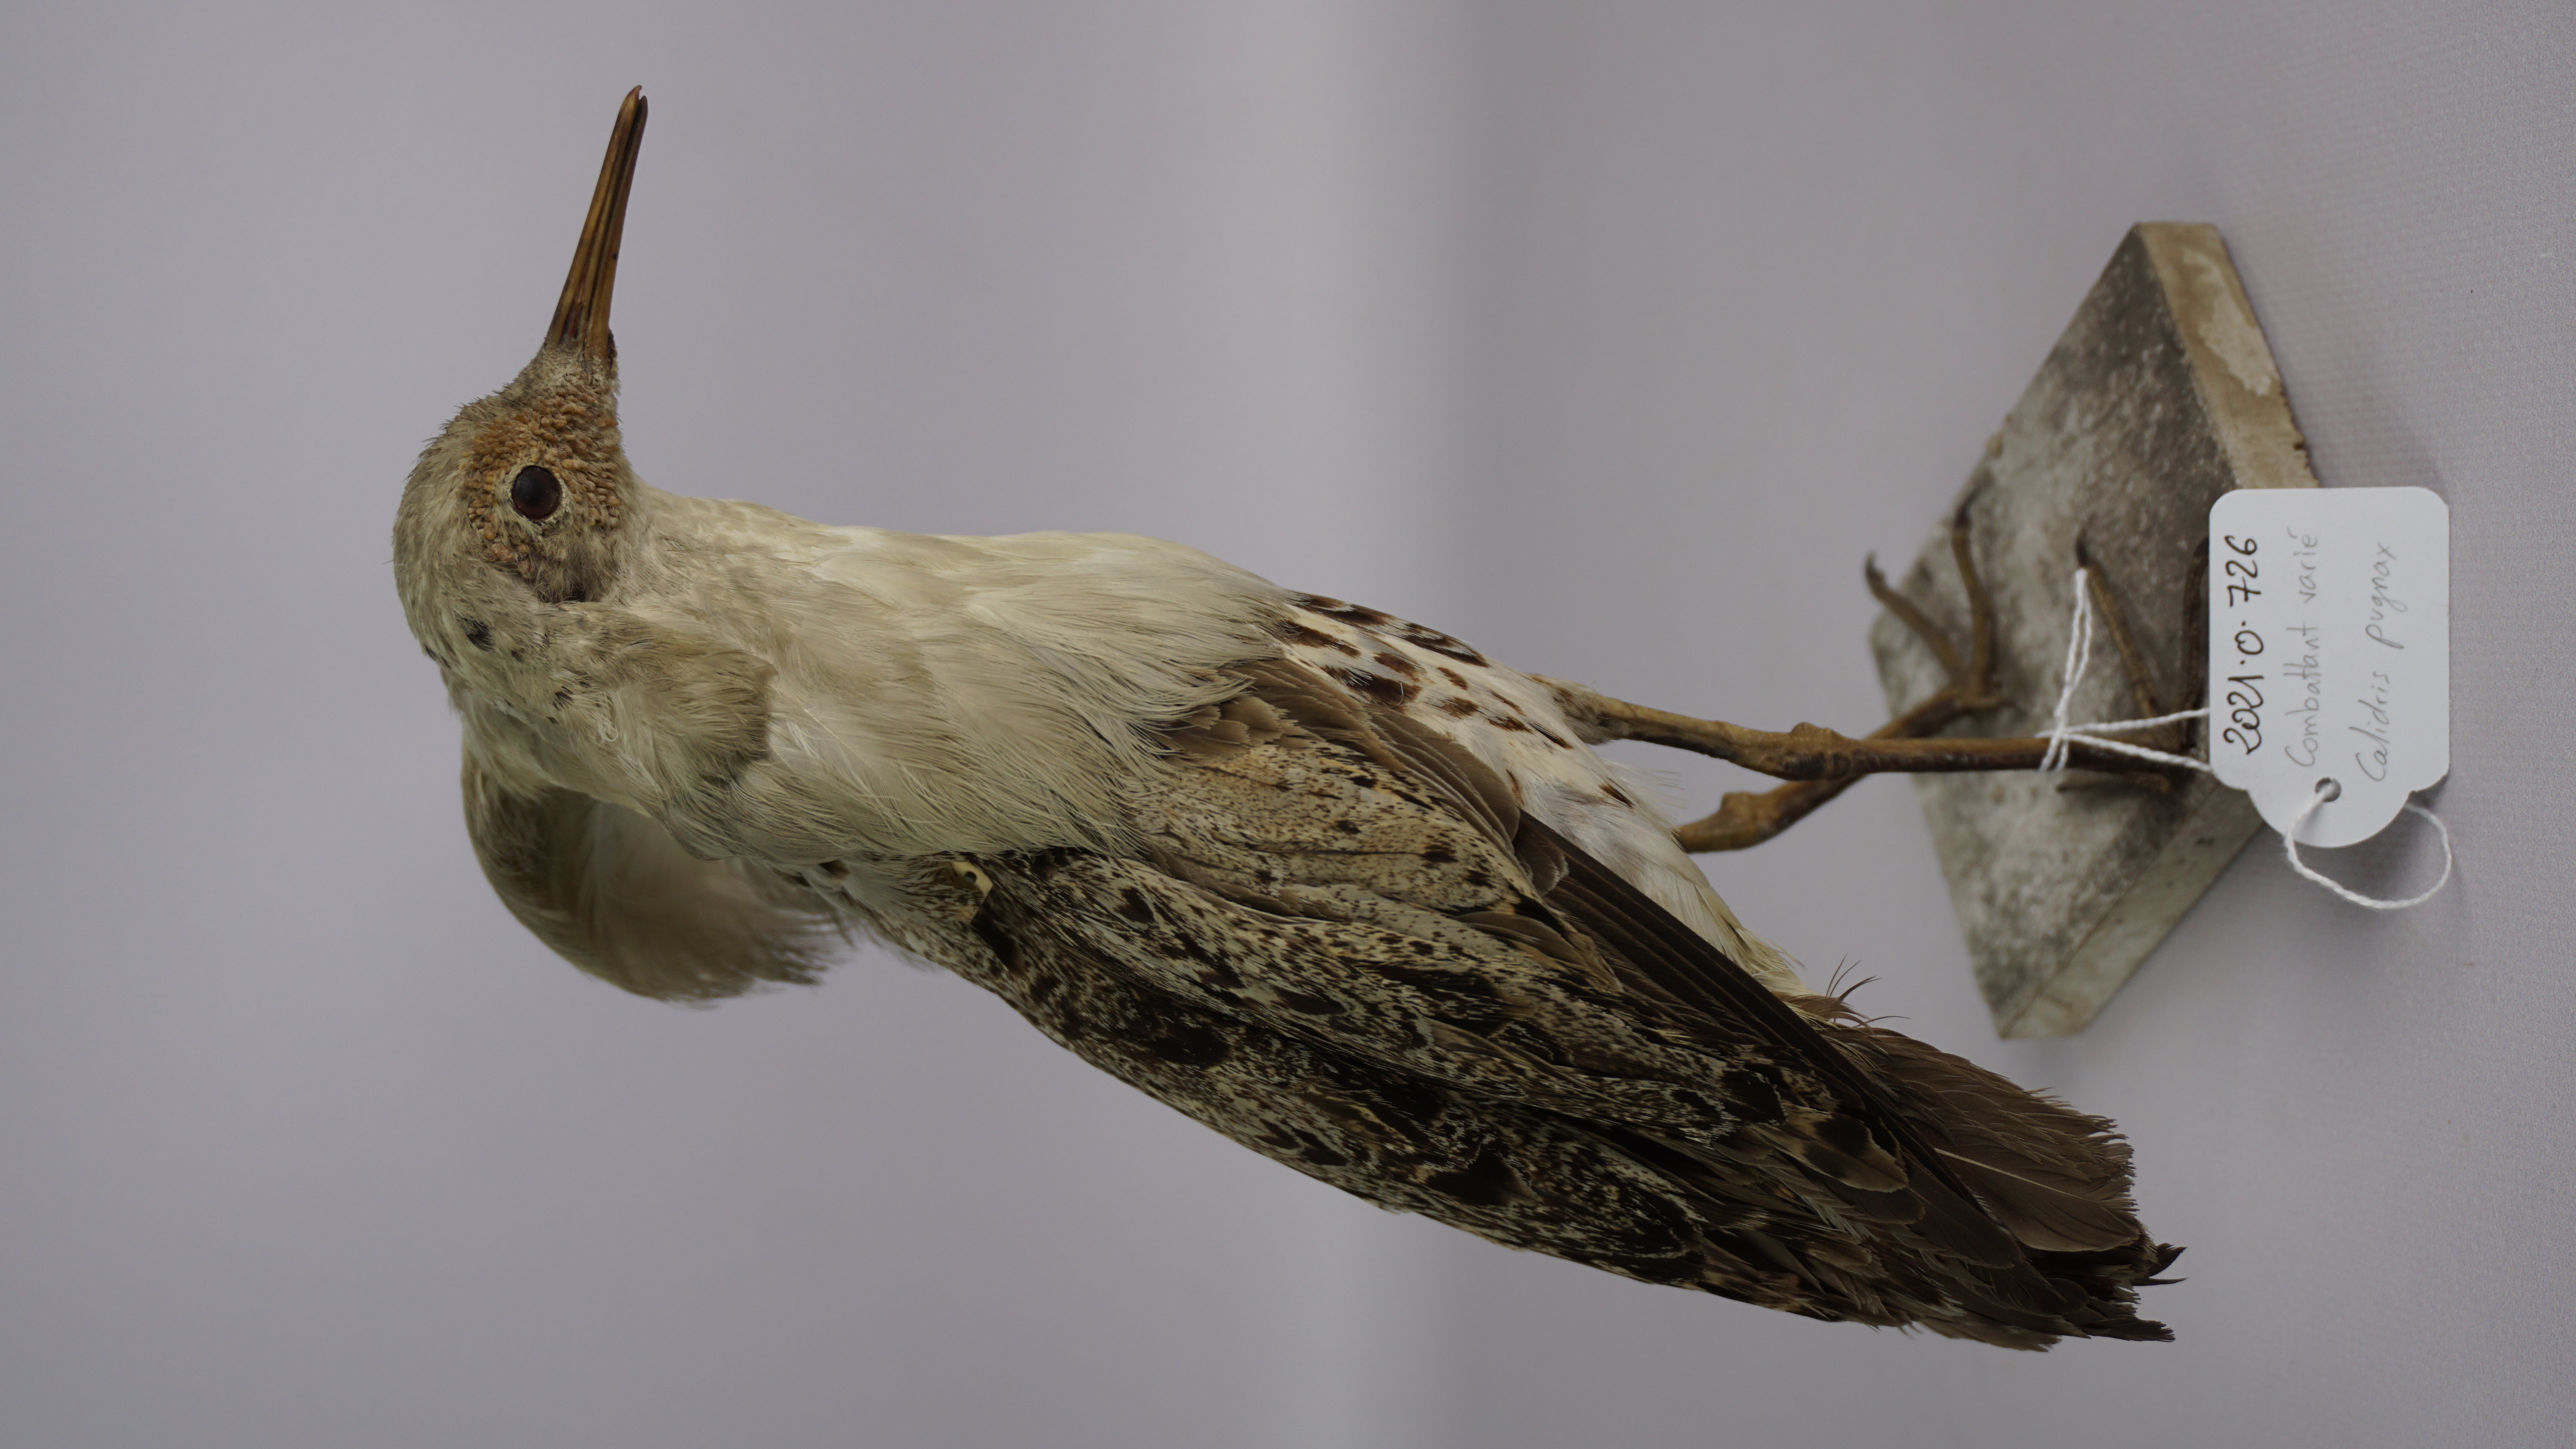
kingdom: Animalia
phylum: Chordata
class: Aves
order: Charadriiformes
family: Scolopacidae
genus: Calidris
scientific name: Calidris pugnax
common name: Ruff
